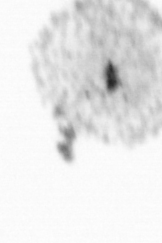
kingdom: Chromista
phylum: Ochrophyta
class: Bacillariophyceae
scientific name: Bacillariophyceae
